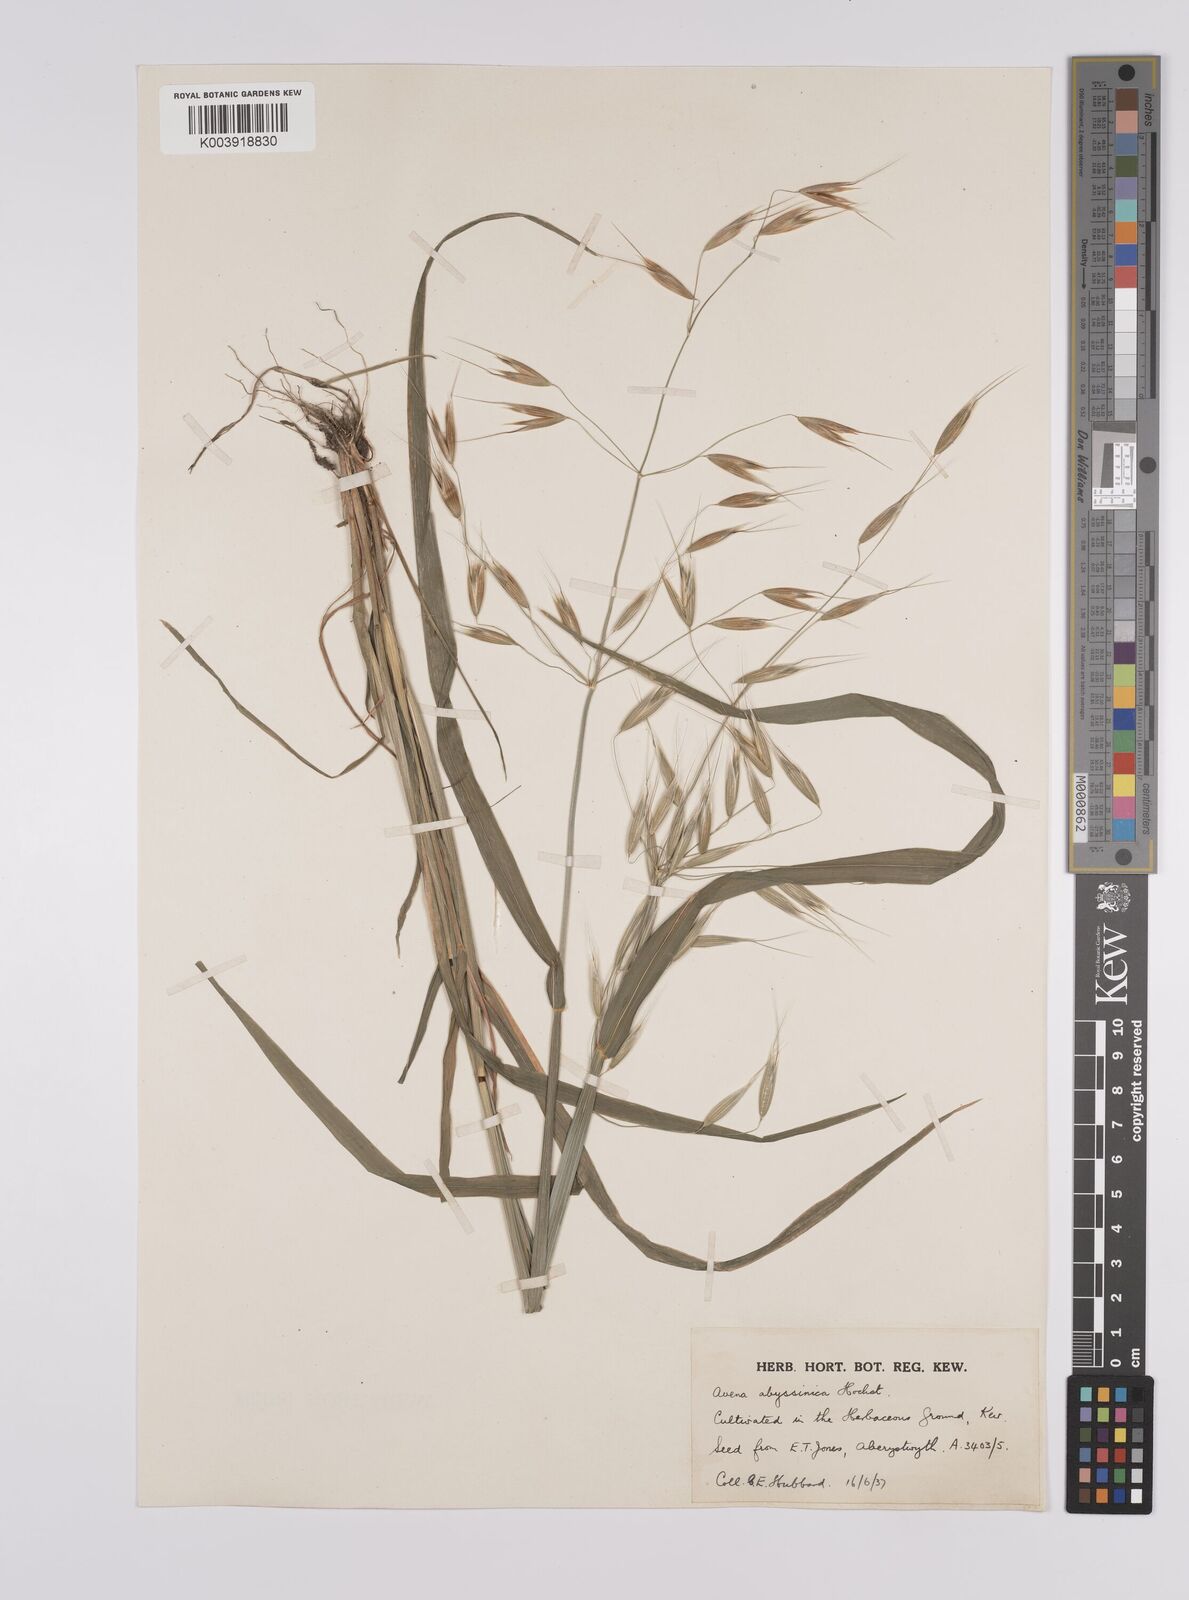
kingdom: Plantae
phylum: Tracheophyta
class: Liliopsida
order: Poales
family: Poaceae
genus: Avena
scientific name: Avena abyssinica
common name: Ethiopian oat
